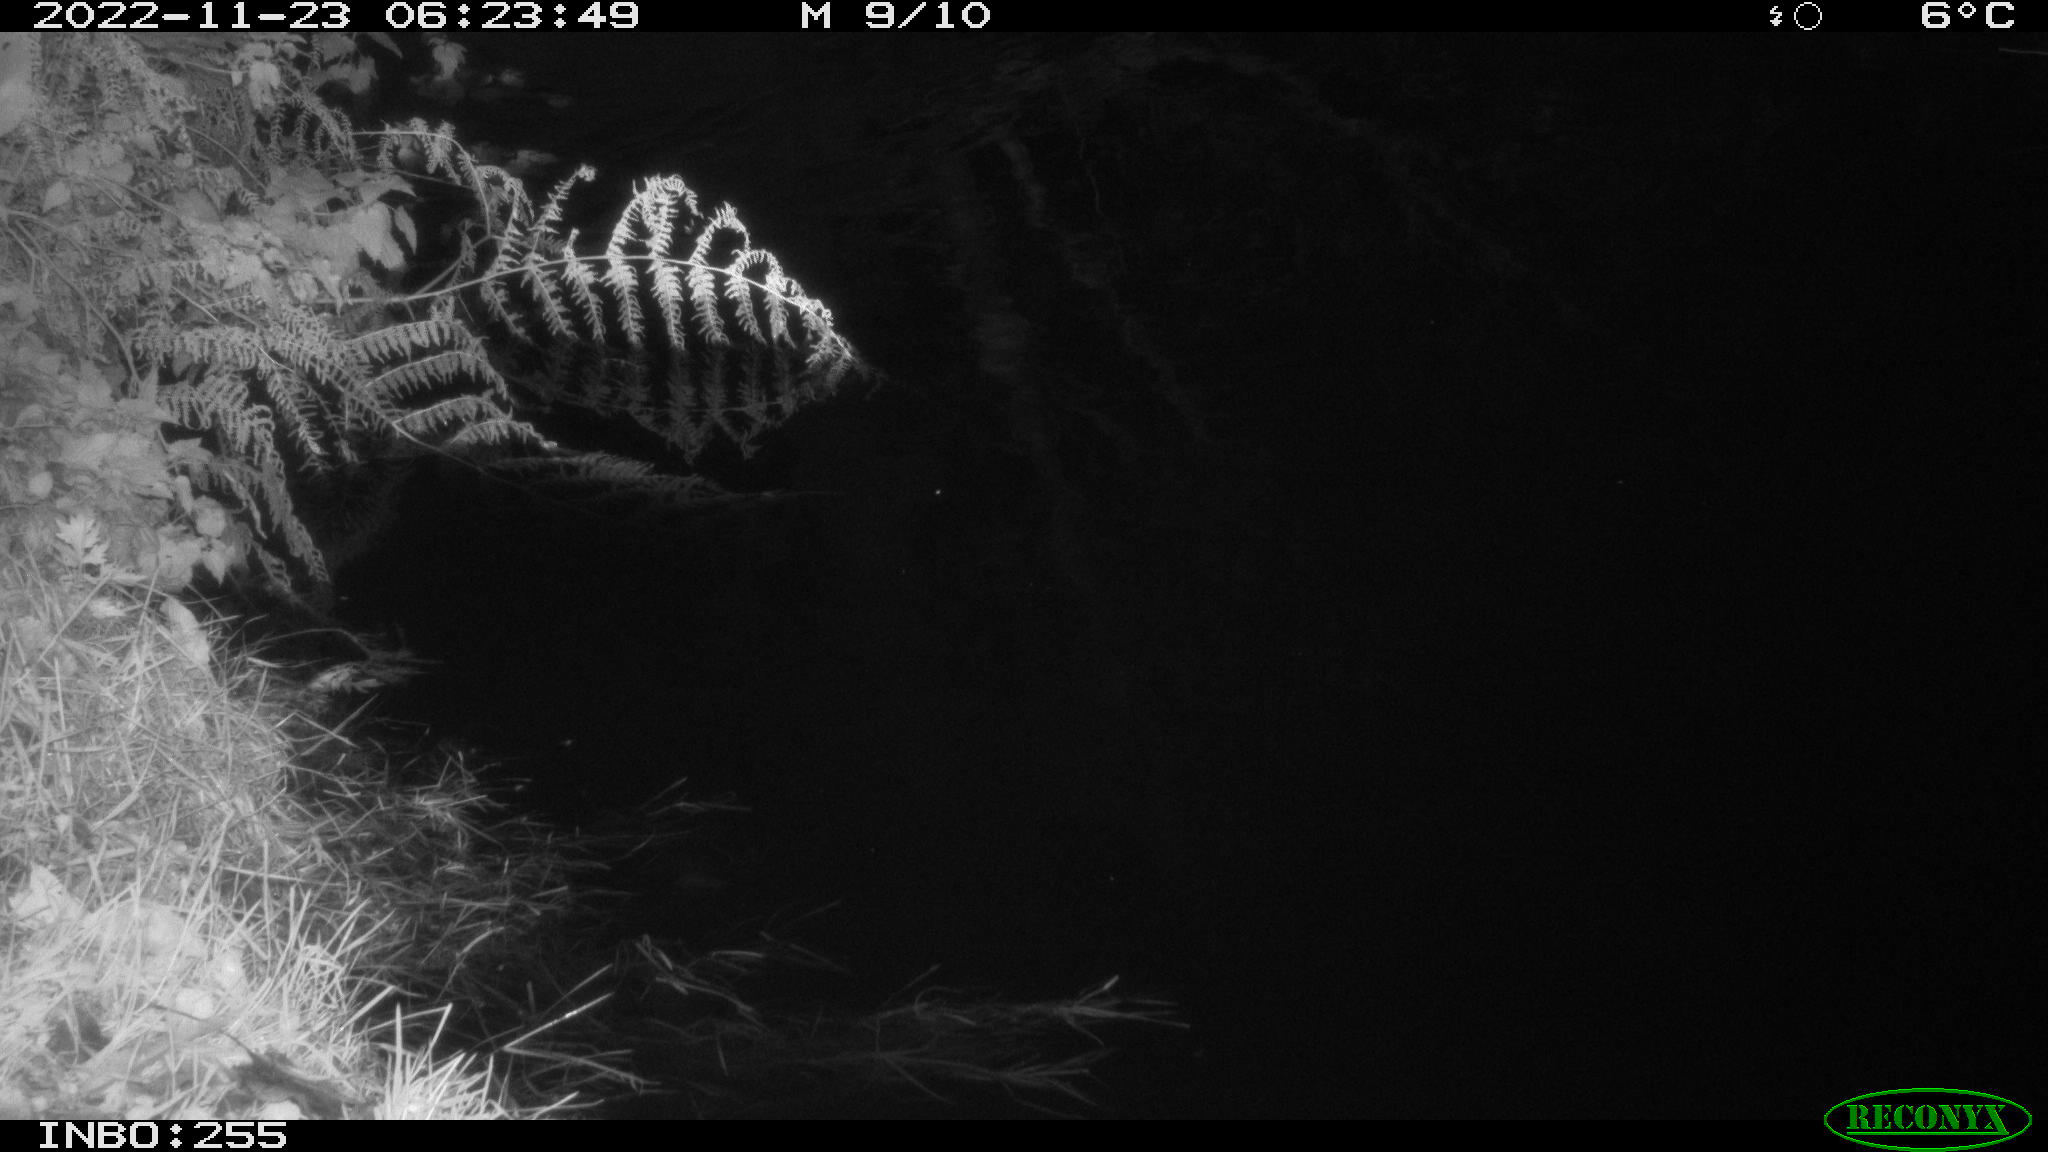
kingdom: Animalia
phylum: Chordata
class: Mammalia
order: Rodentia
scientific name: Rodentia
